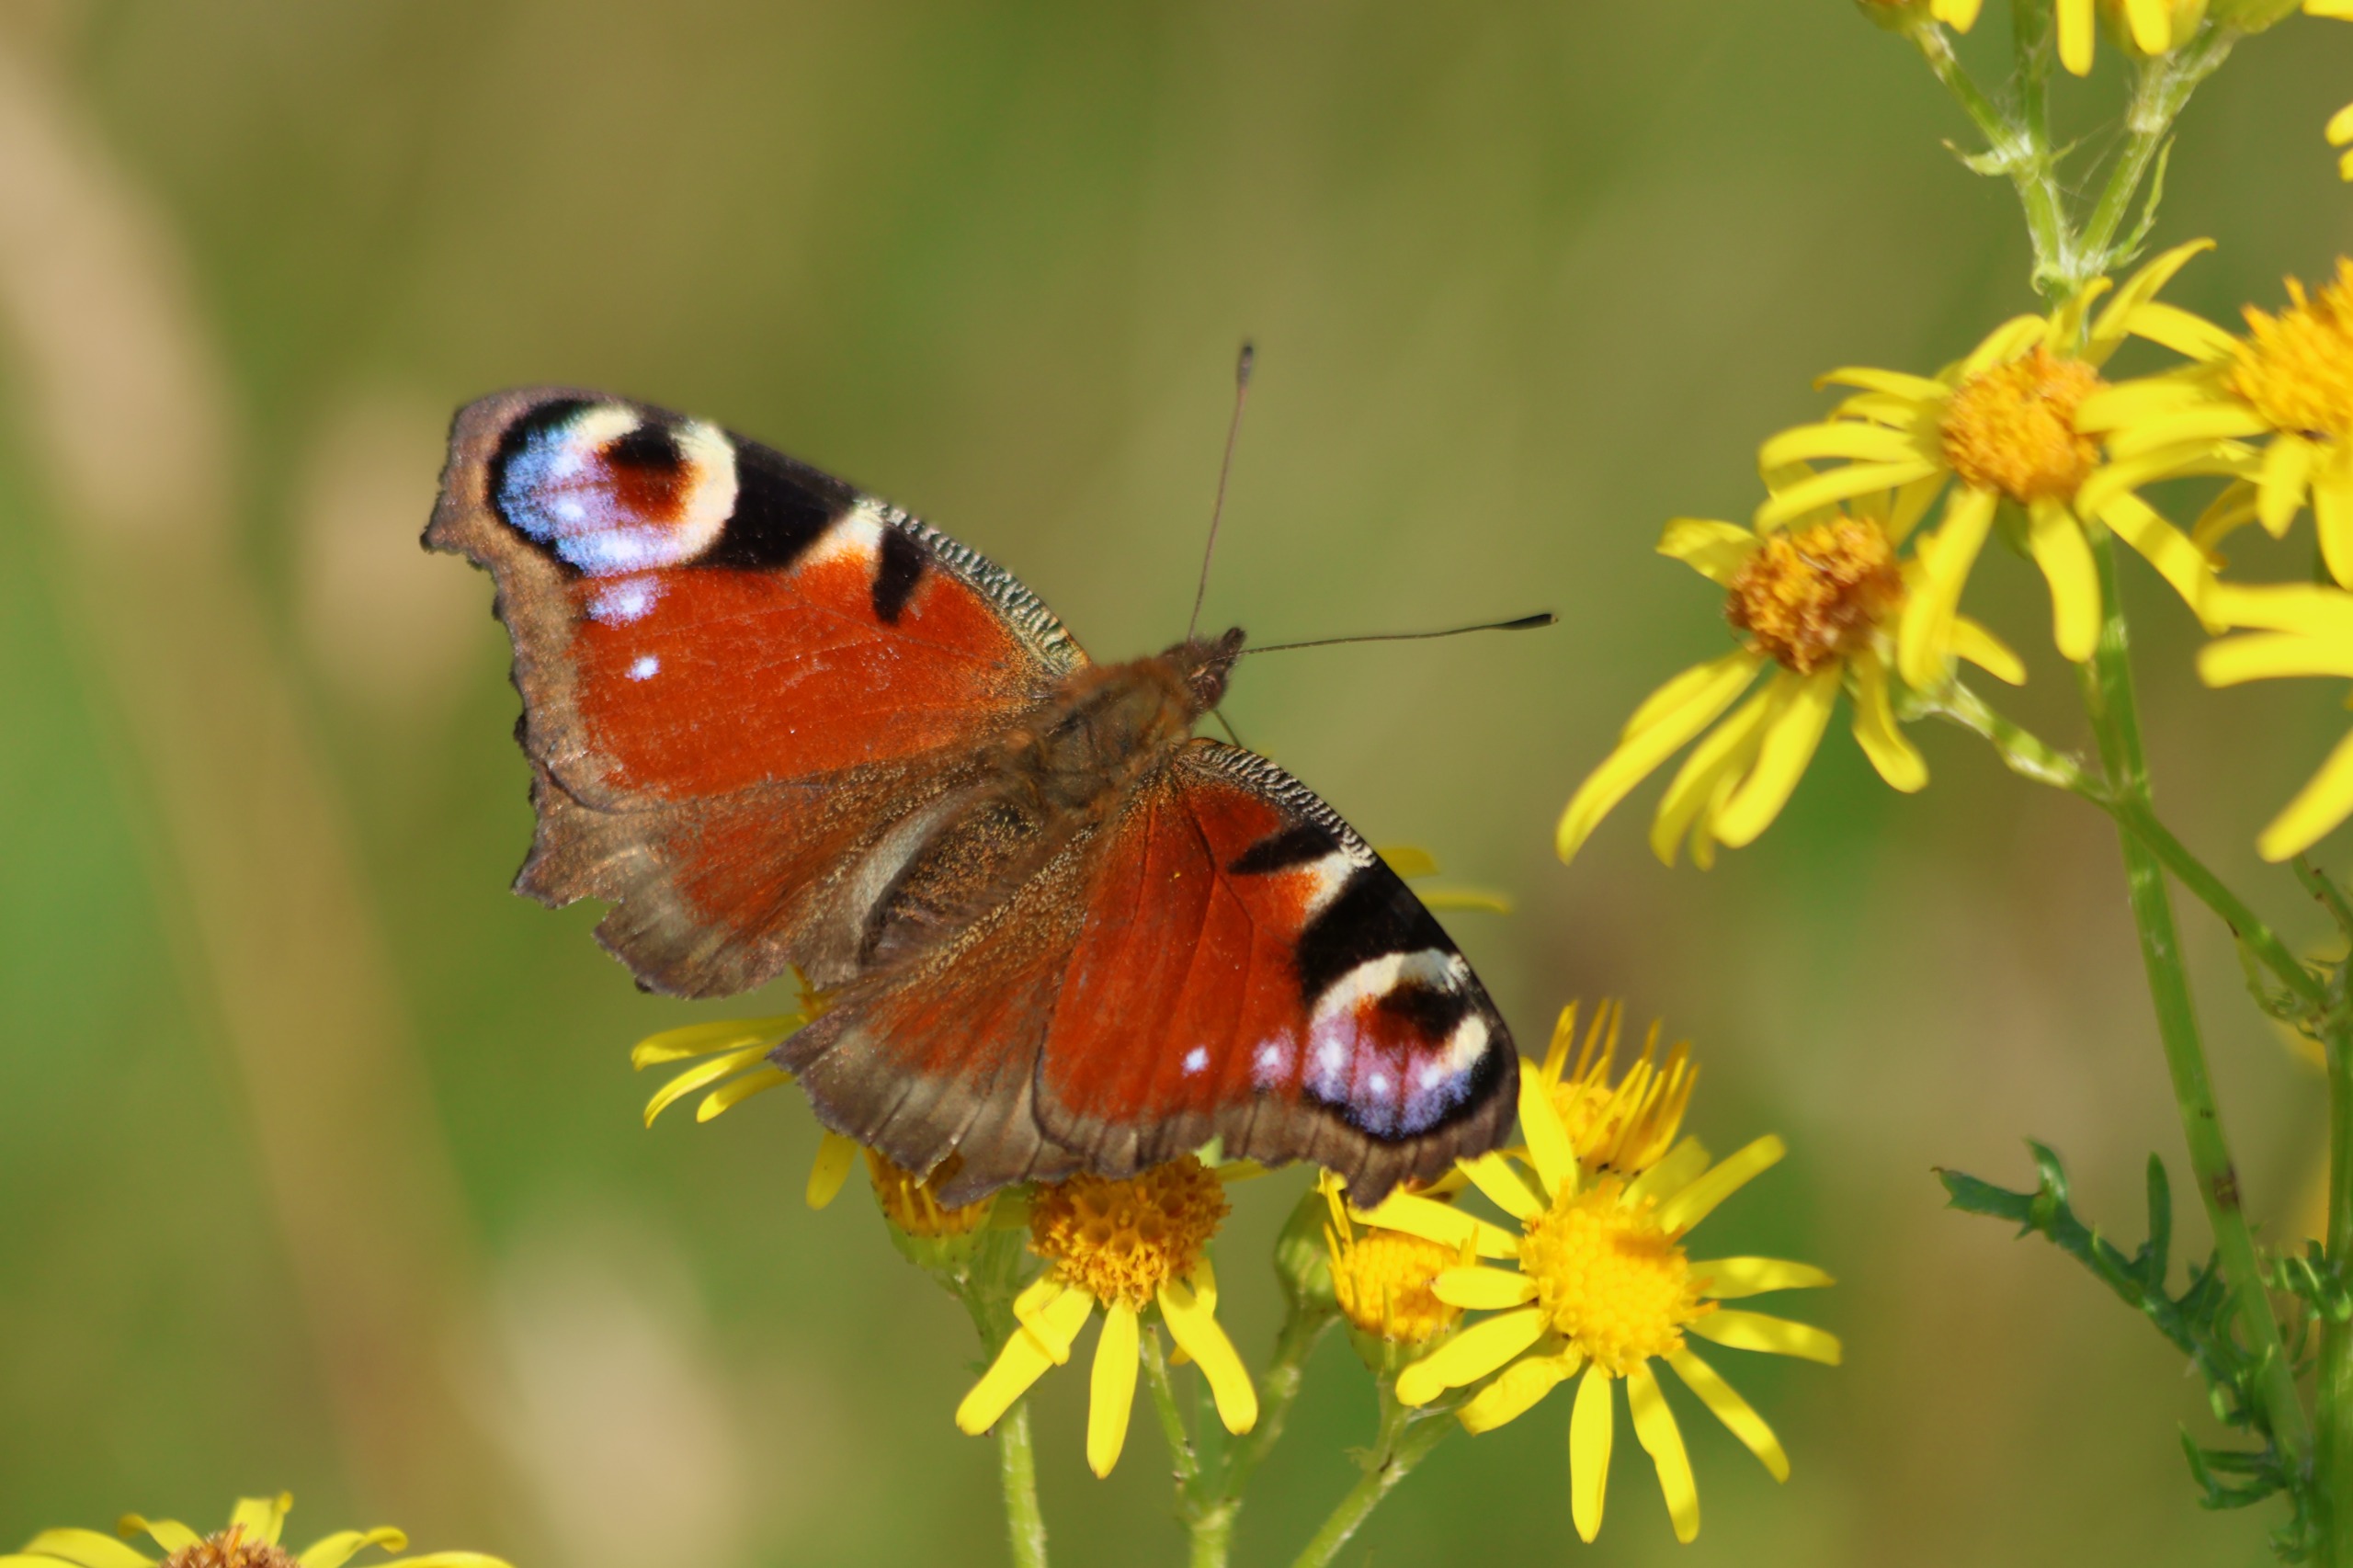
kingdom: Animalia
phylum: Arthropoda
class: Insecta
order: Lepidoptera
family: Nymphalidae
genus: Aglais
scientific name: Aglais io
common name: Dagpåfugleøje
